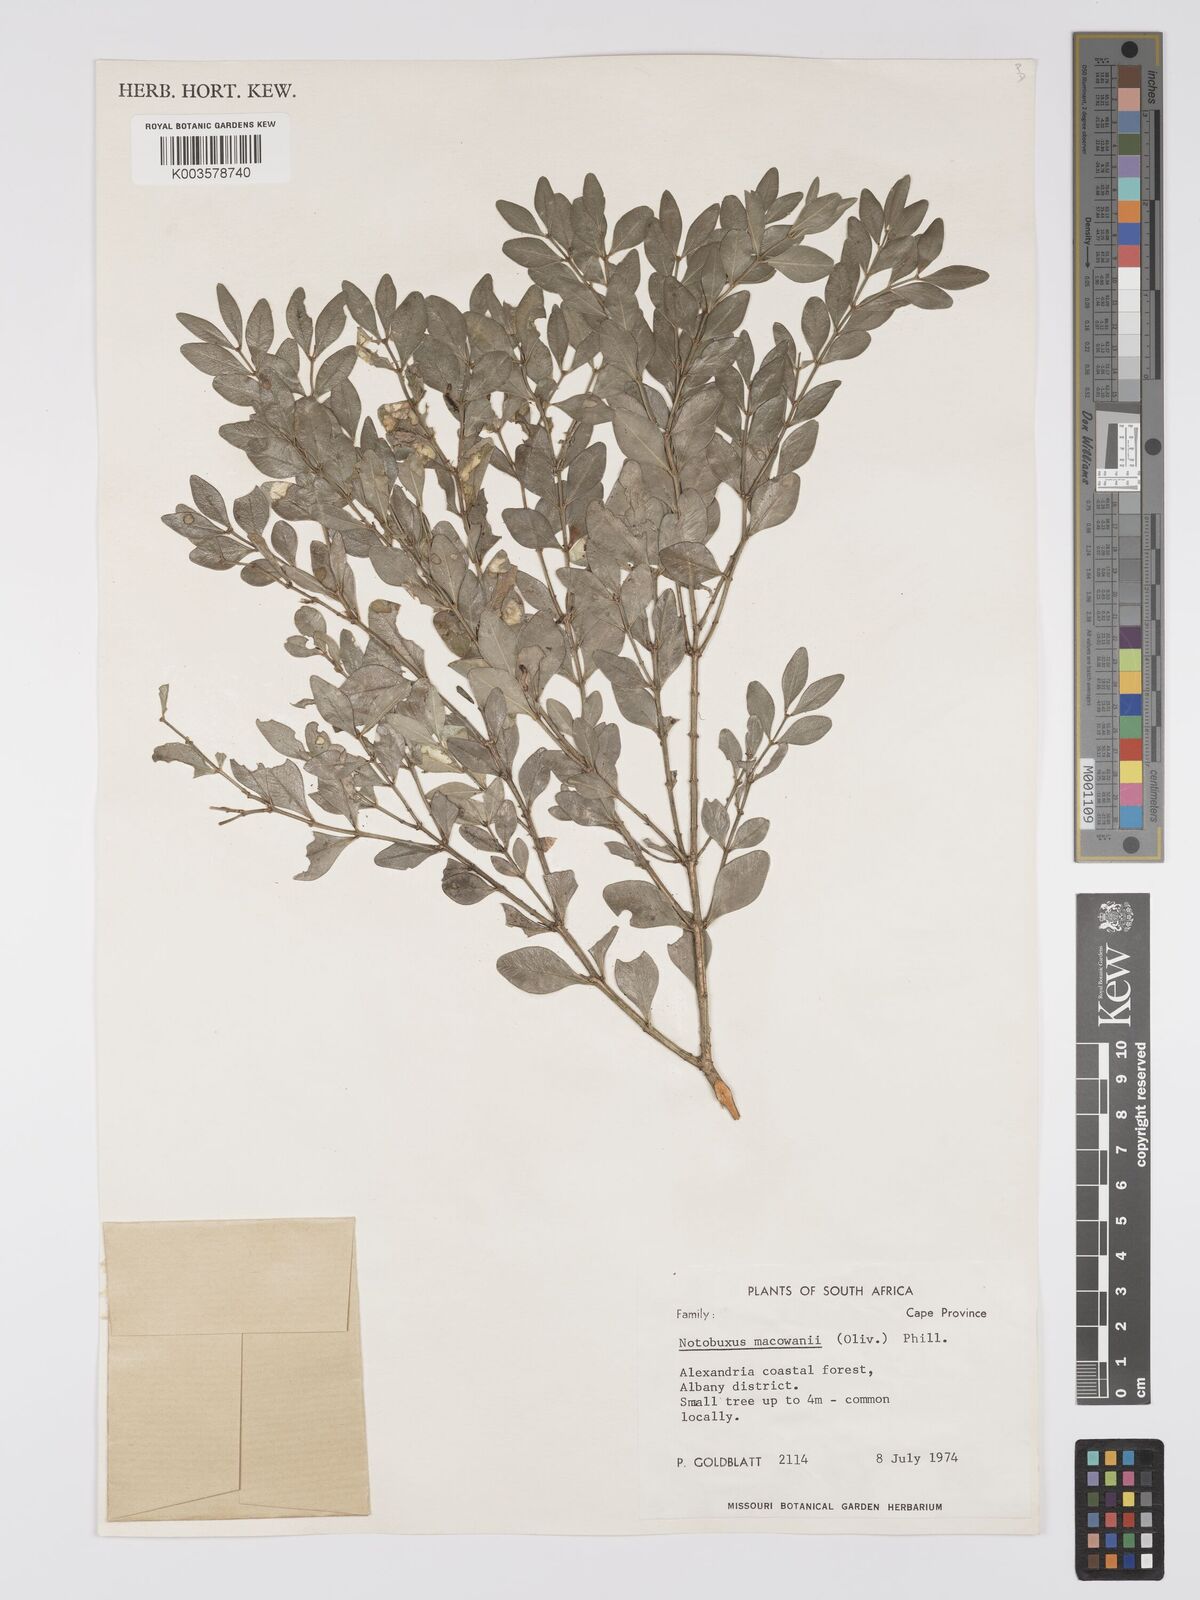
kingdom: Plantae
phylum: Tracheophyta
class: Magnoliopsida
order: Buxales
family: Buxaceae
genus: Buxus
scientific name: Buxus macowanii
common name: Cape box
